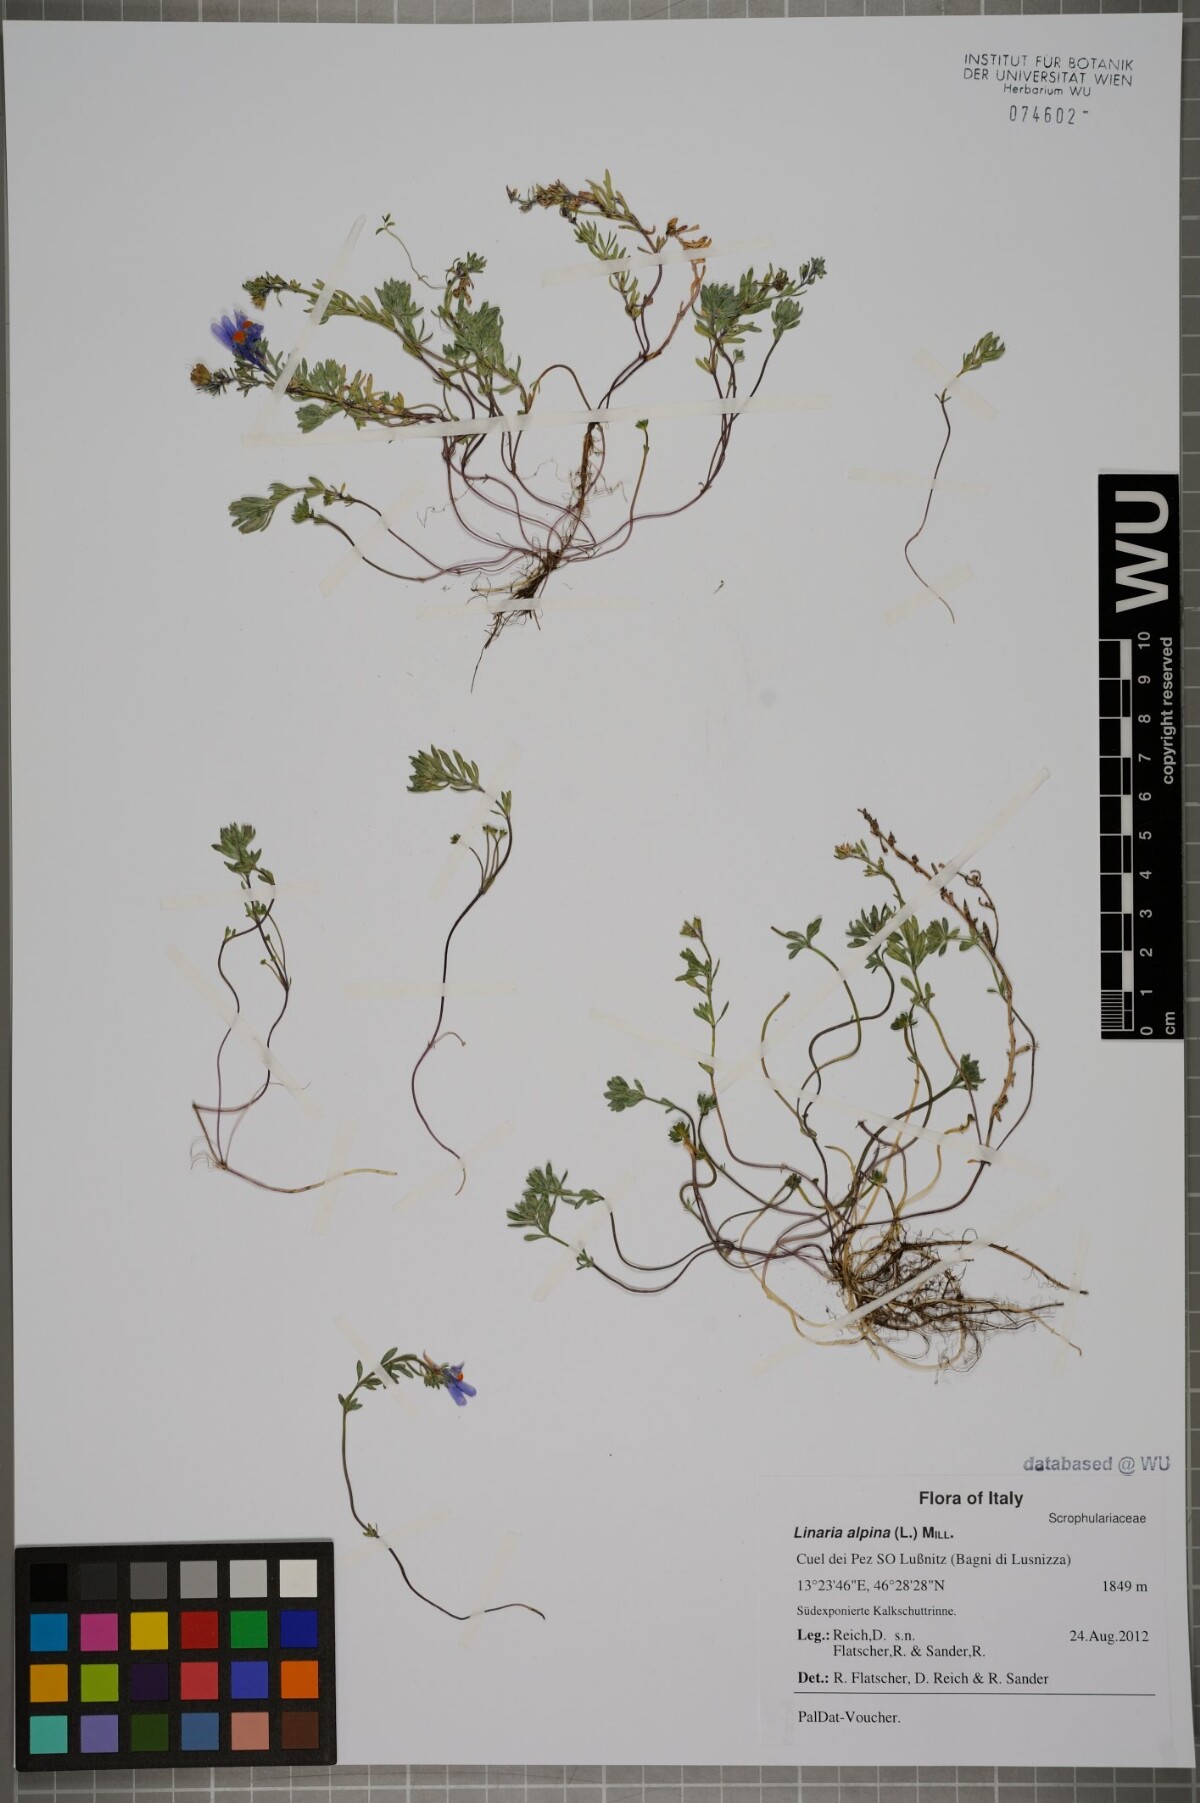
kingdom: Plantae
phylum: Tracheophyta
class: Magnoliopsida
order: Lamiales
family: Plantaginaceae
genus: Linaria
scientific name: Linaria alpina
